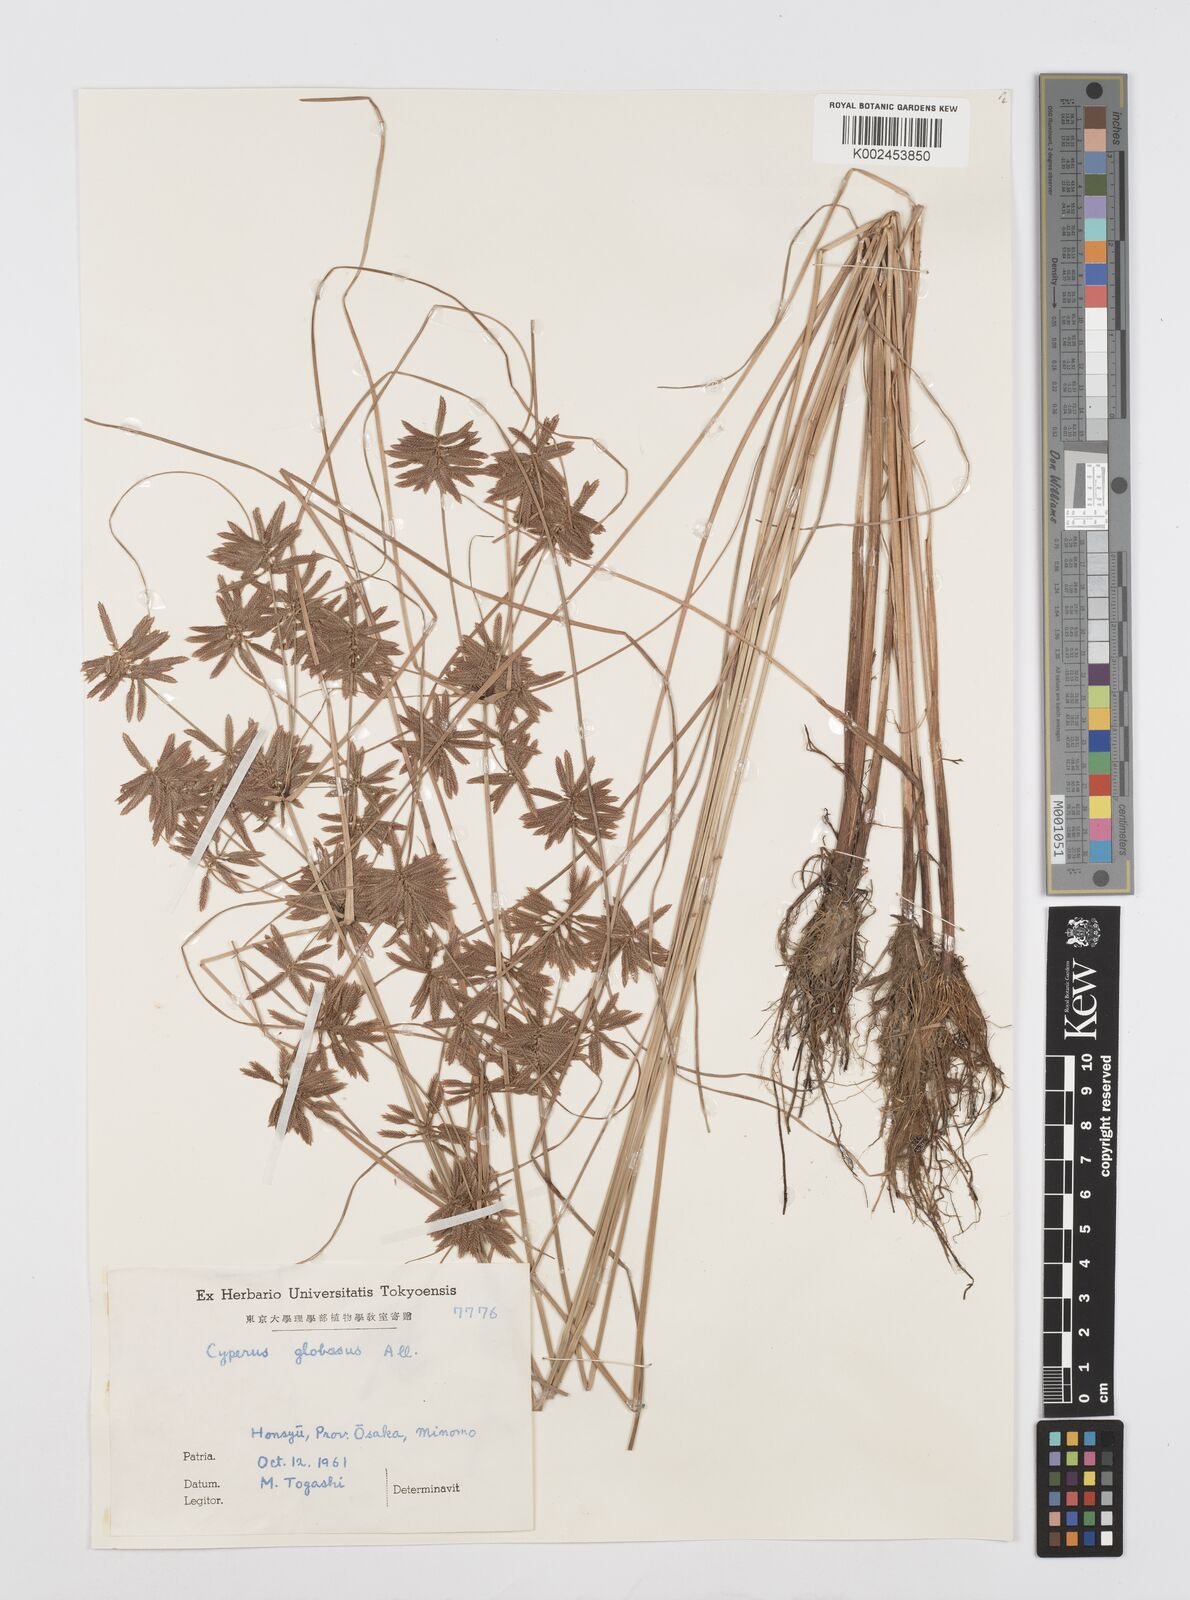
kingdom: Plantae
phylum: Tracheophyta
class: Liliopsida
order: Poales
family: Cyperaceae
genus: Cyperus
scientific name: Cyperus flavidus
